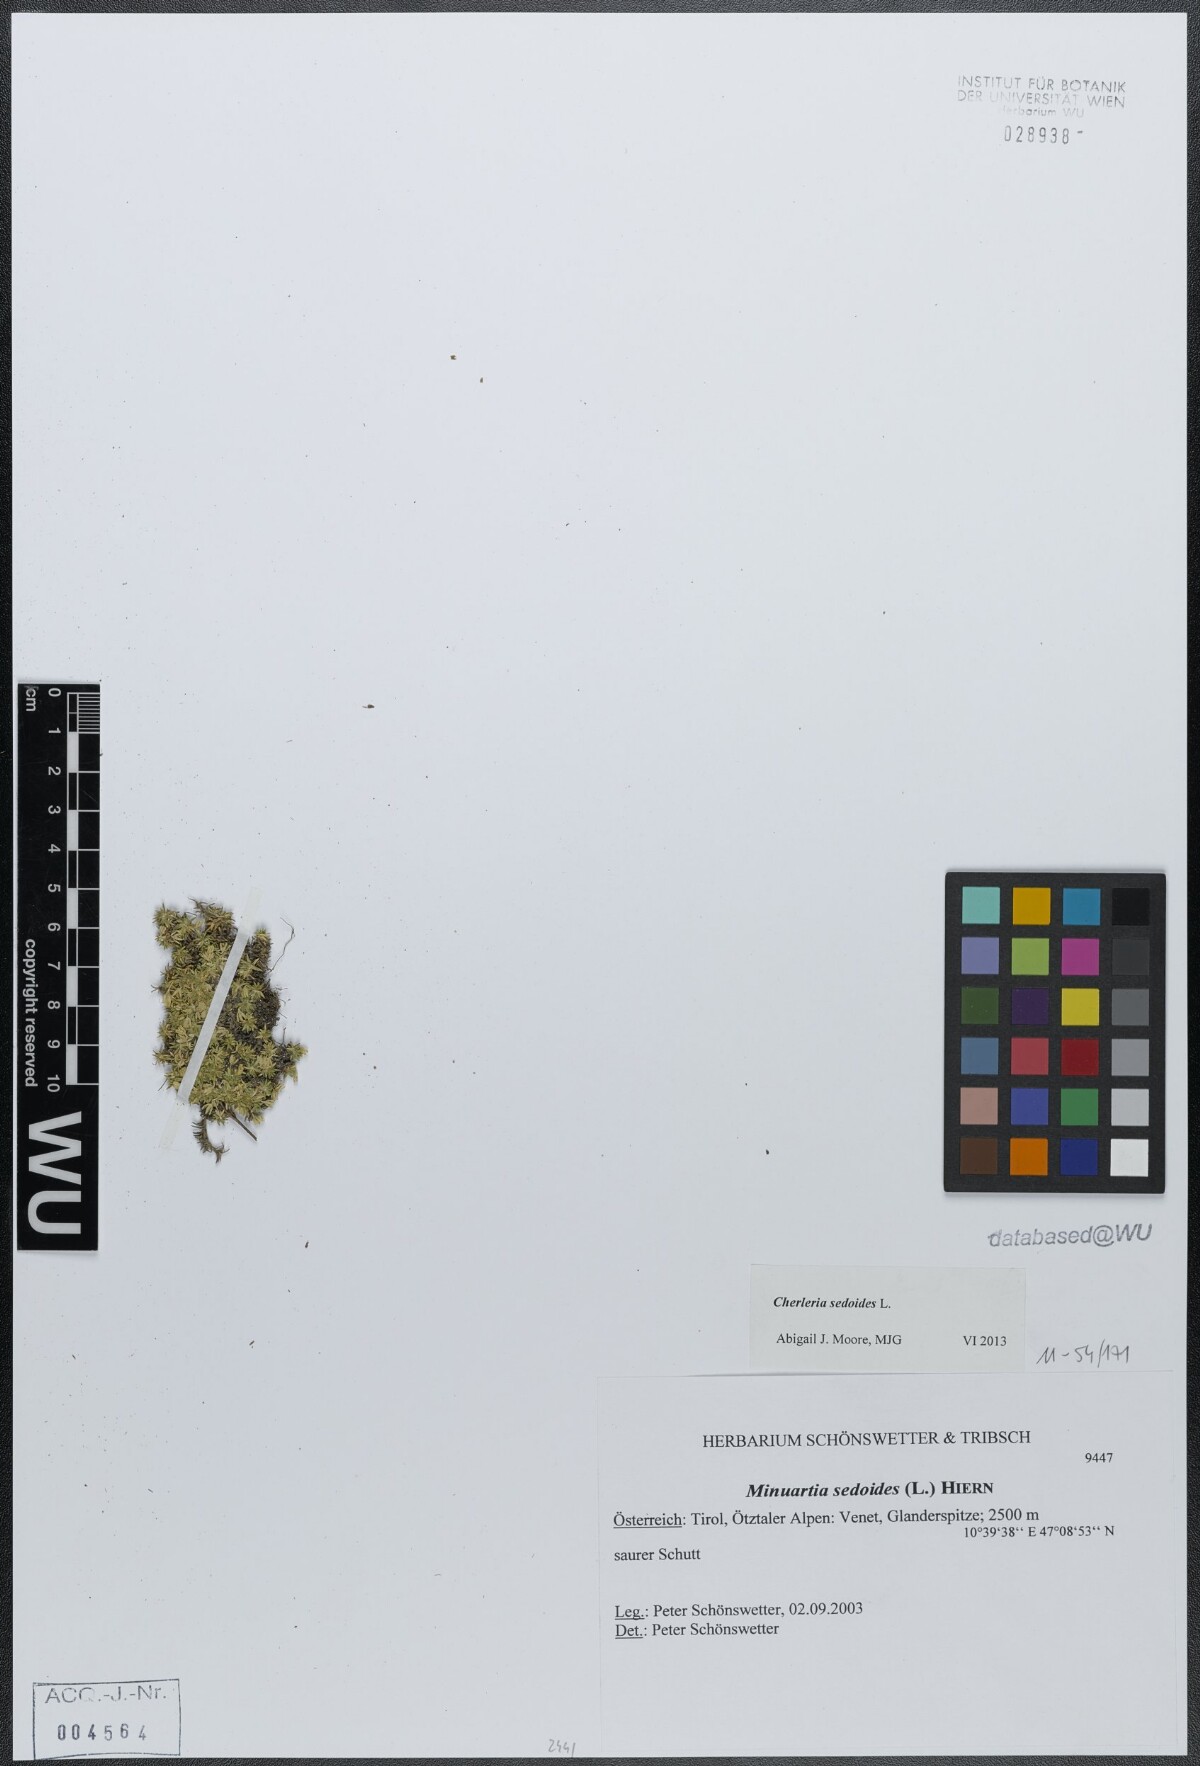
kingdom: Plantae
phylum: Tracheophyta
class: Magnoliopsida
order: Caryophyllales
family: Caryophyllaceae
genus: Cherleria
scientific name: Cherleria sedoides
